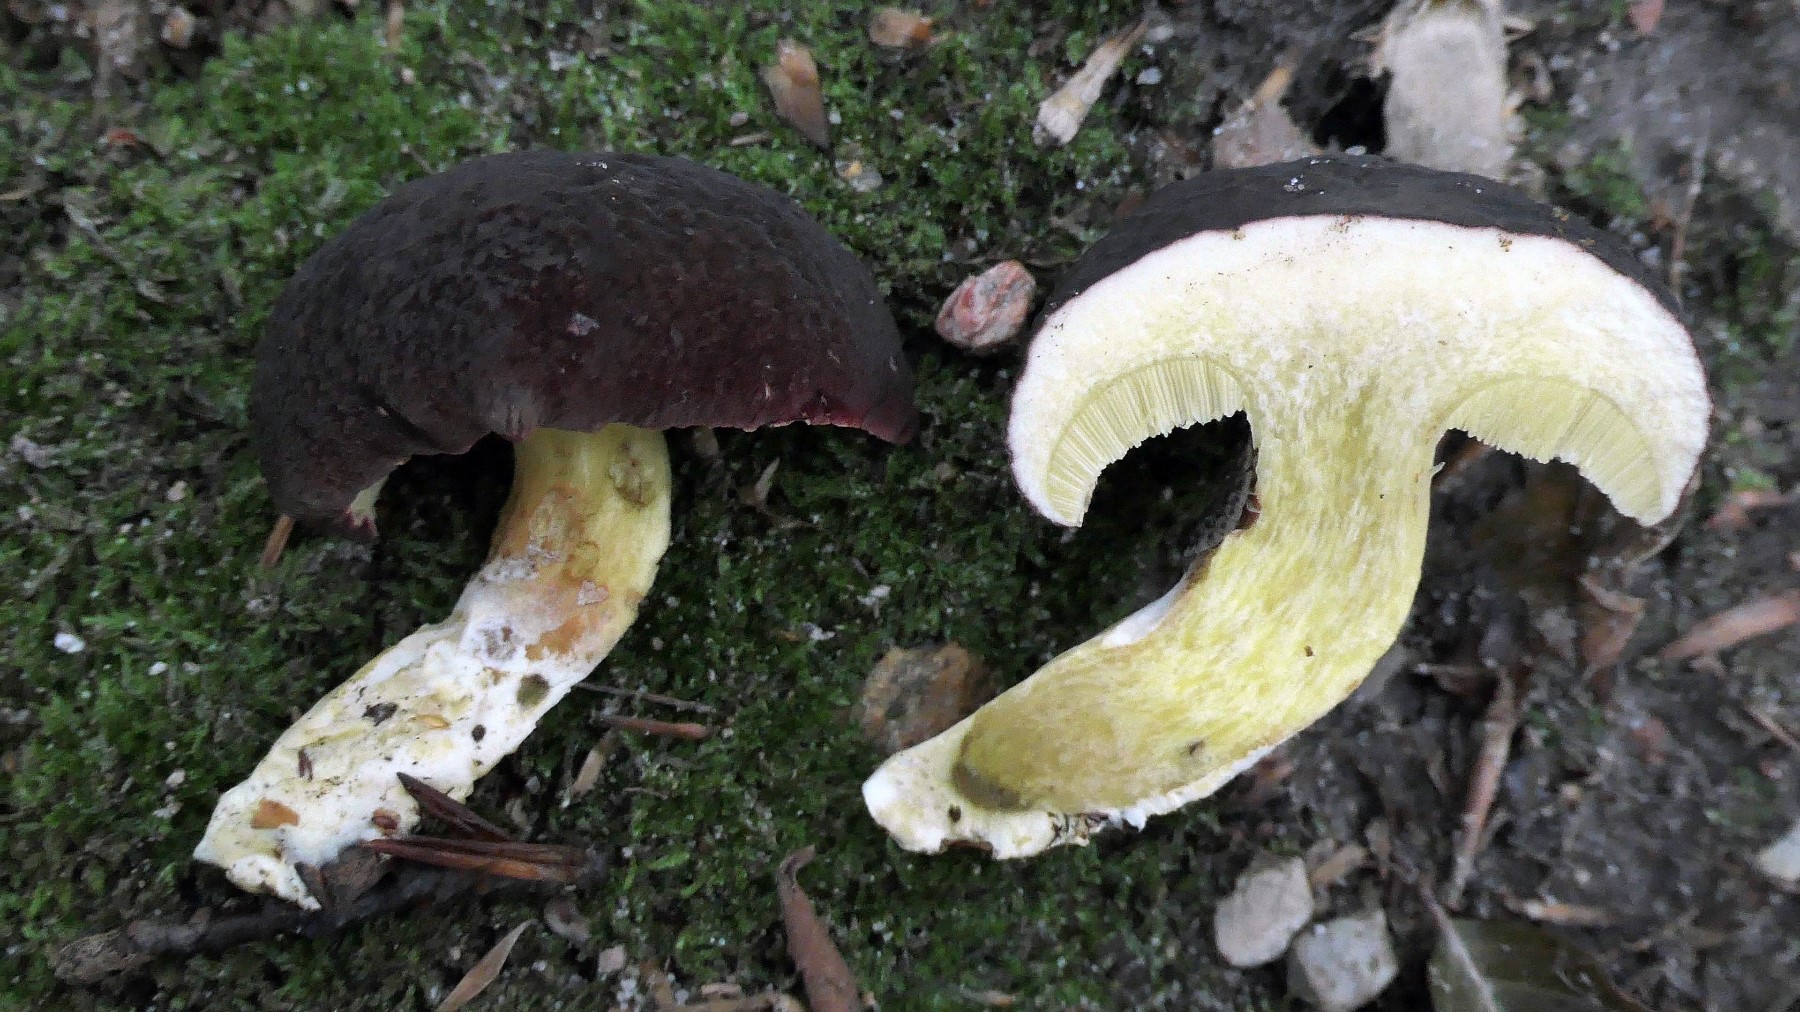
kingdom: Fungi
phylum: Basidiomycota
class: Agaricomycetes
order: Boletales
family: Boletaceae
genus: Xerocomellus
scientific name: Xerocomellus pruinatus
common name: dugget rørhat
